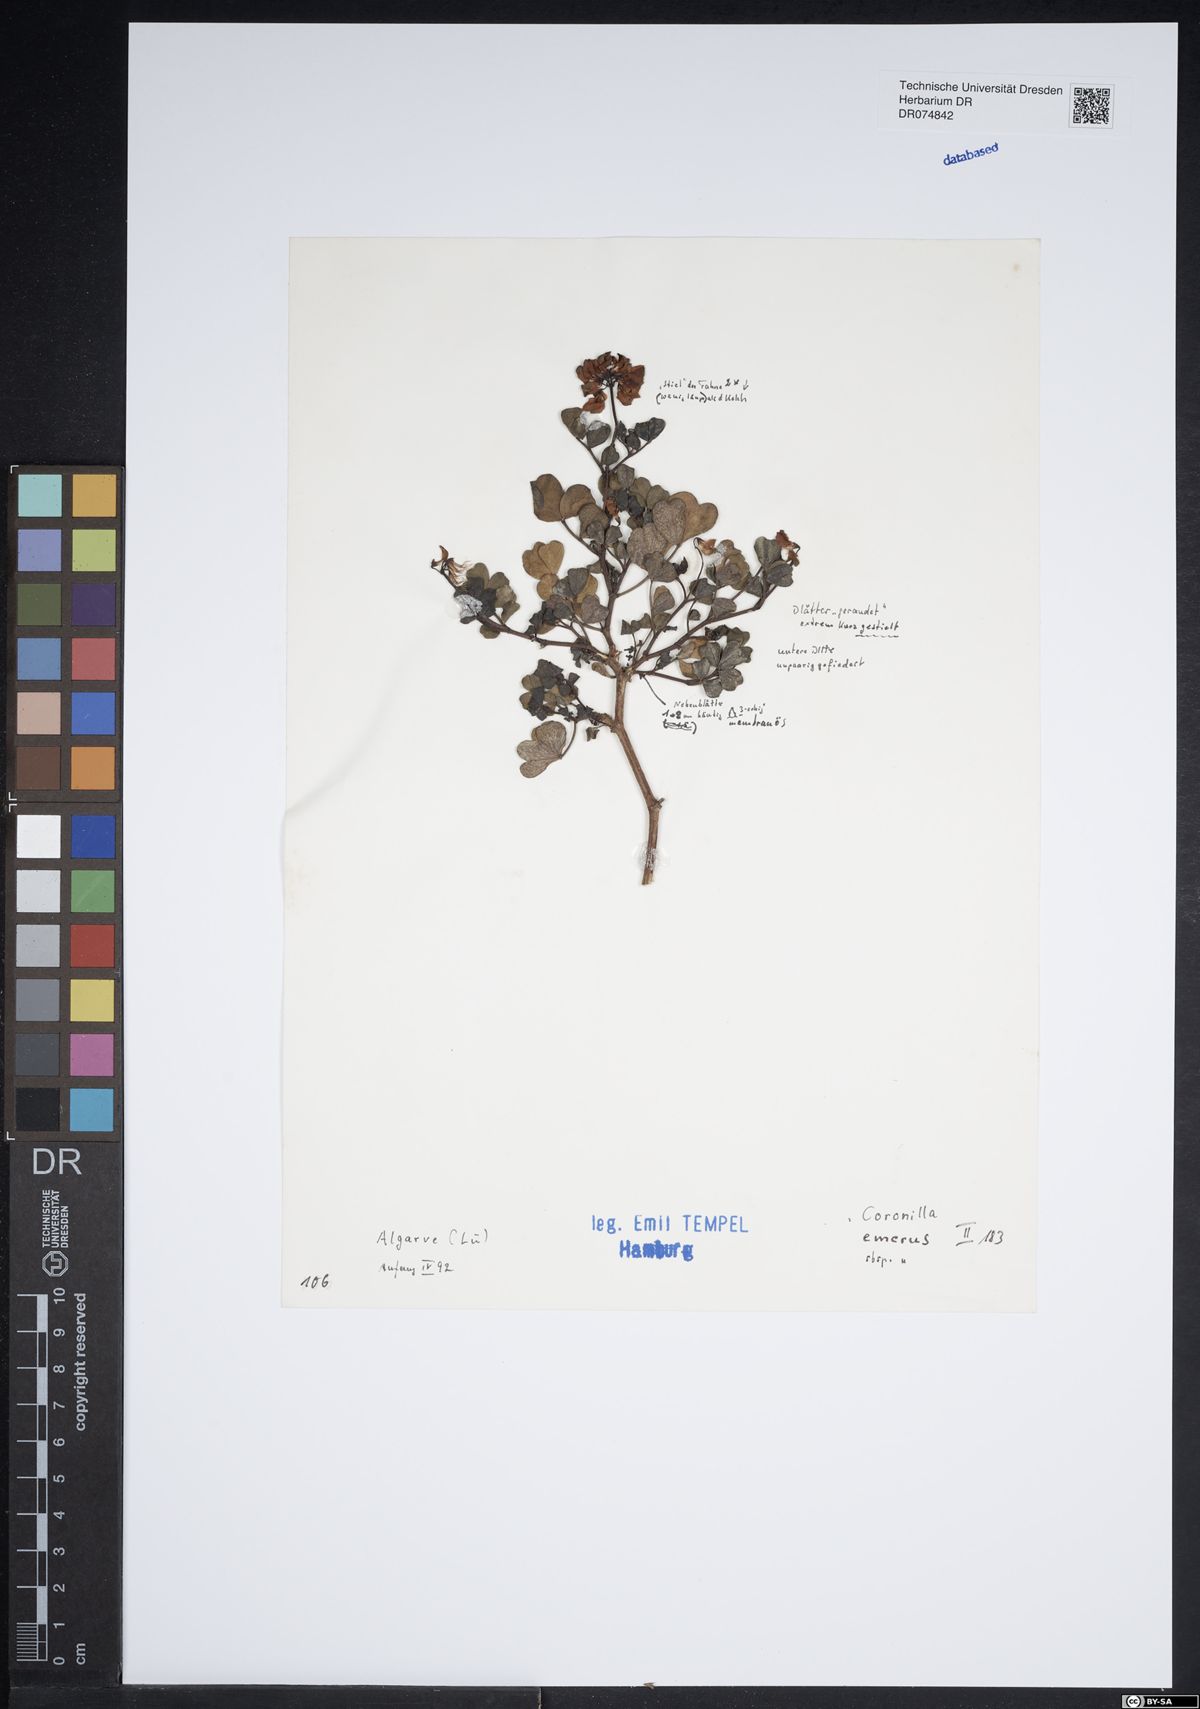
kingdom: Plantae
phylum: Tracheophyta
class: Magnoliopsida
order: Fabales
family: Fabaceae
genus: Hippocrepis
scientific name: Hippocrepis emerus
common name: Scorpion senna
